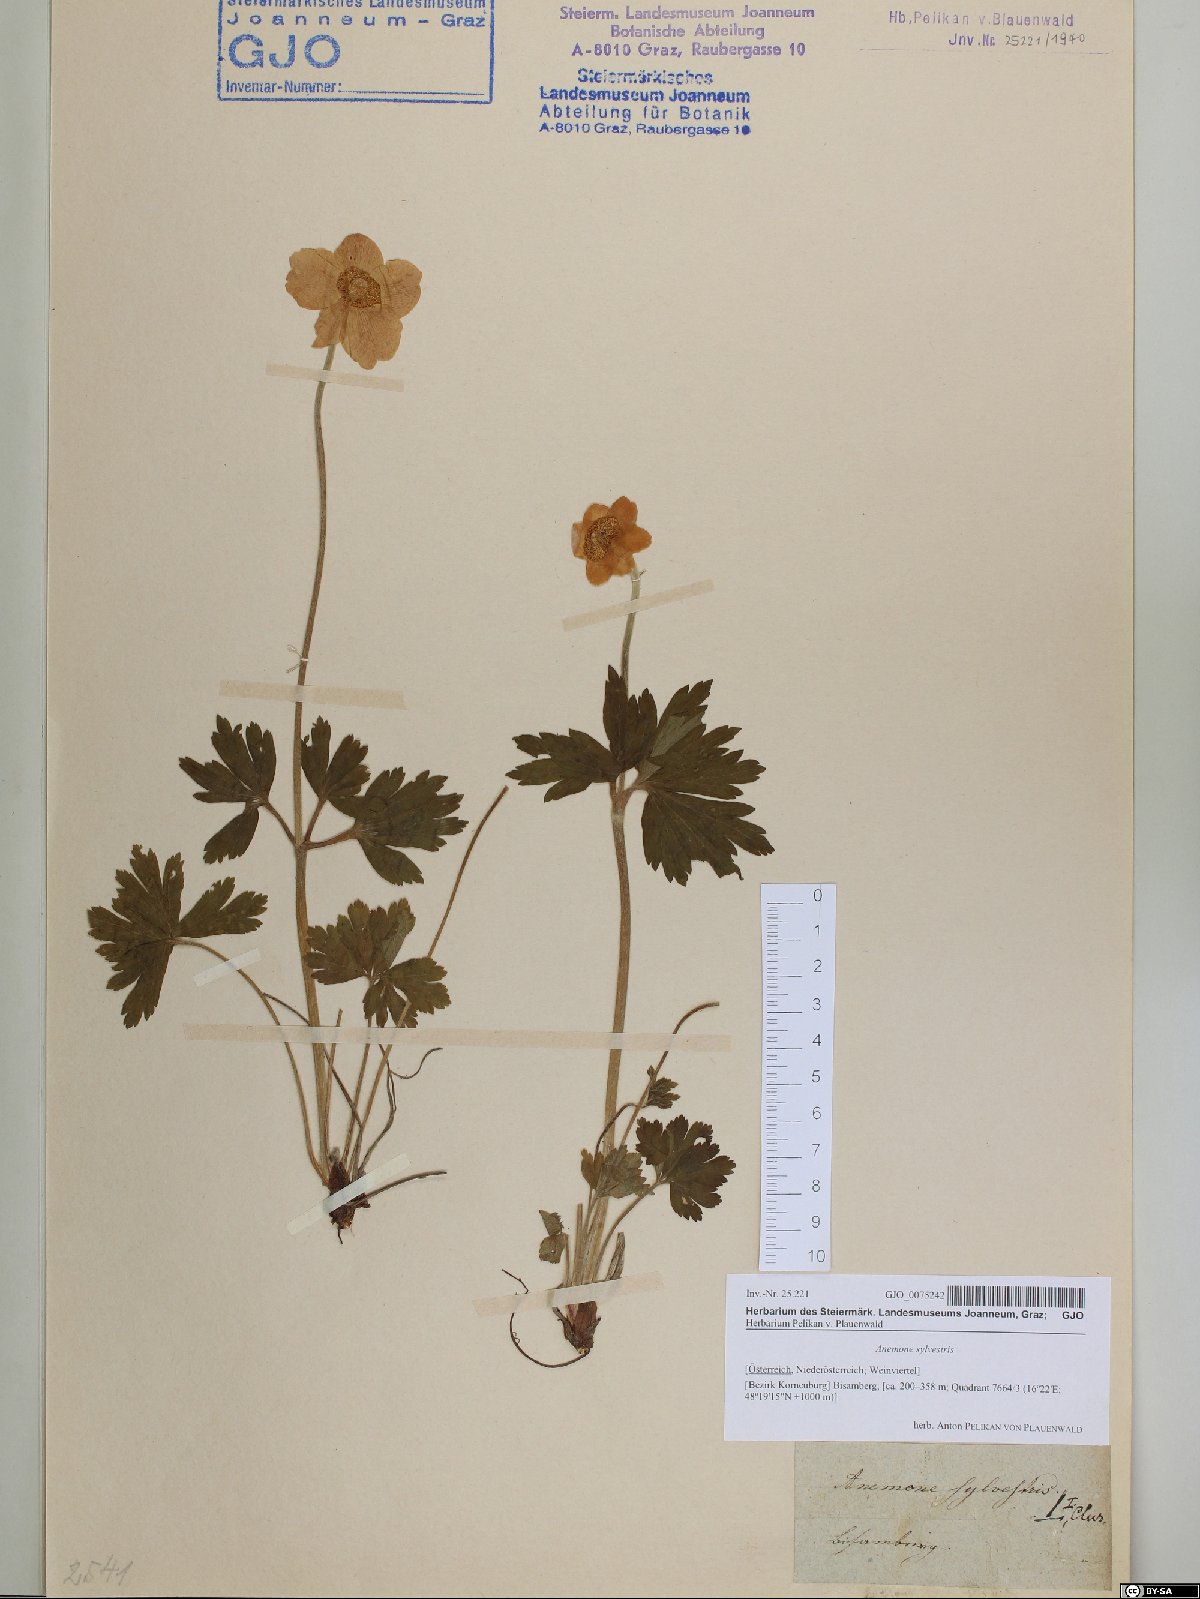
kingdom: Plantae
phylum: Tracheophyta
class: Magnoliopsida
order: Ranunculales
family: Ranunculaceae
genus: Anemone
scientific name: Anemone sylvestris
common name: Snowdrop anemone
